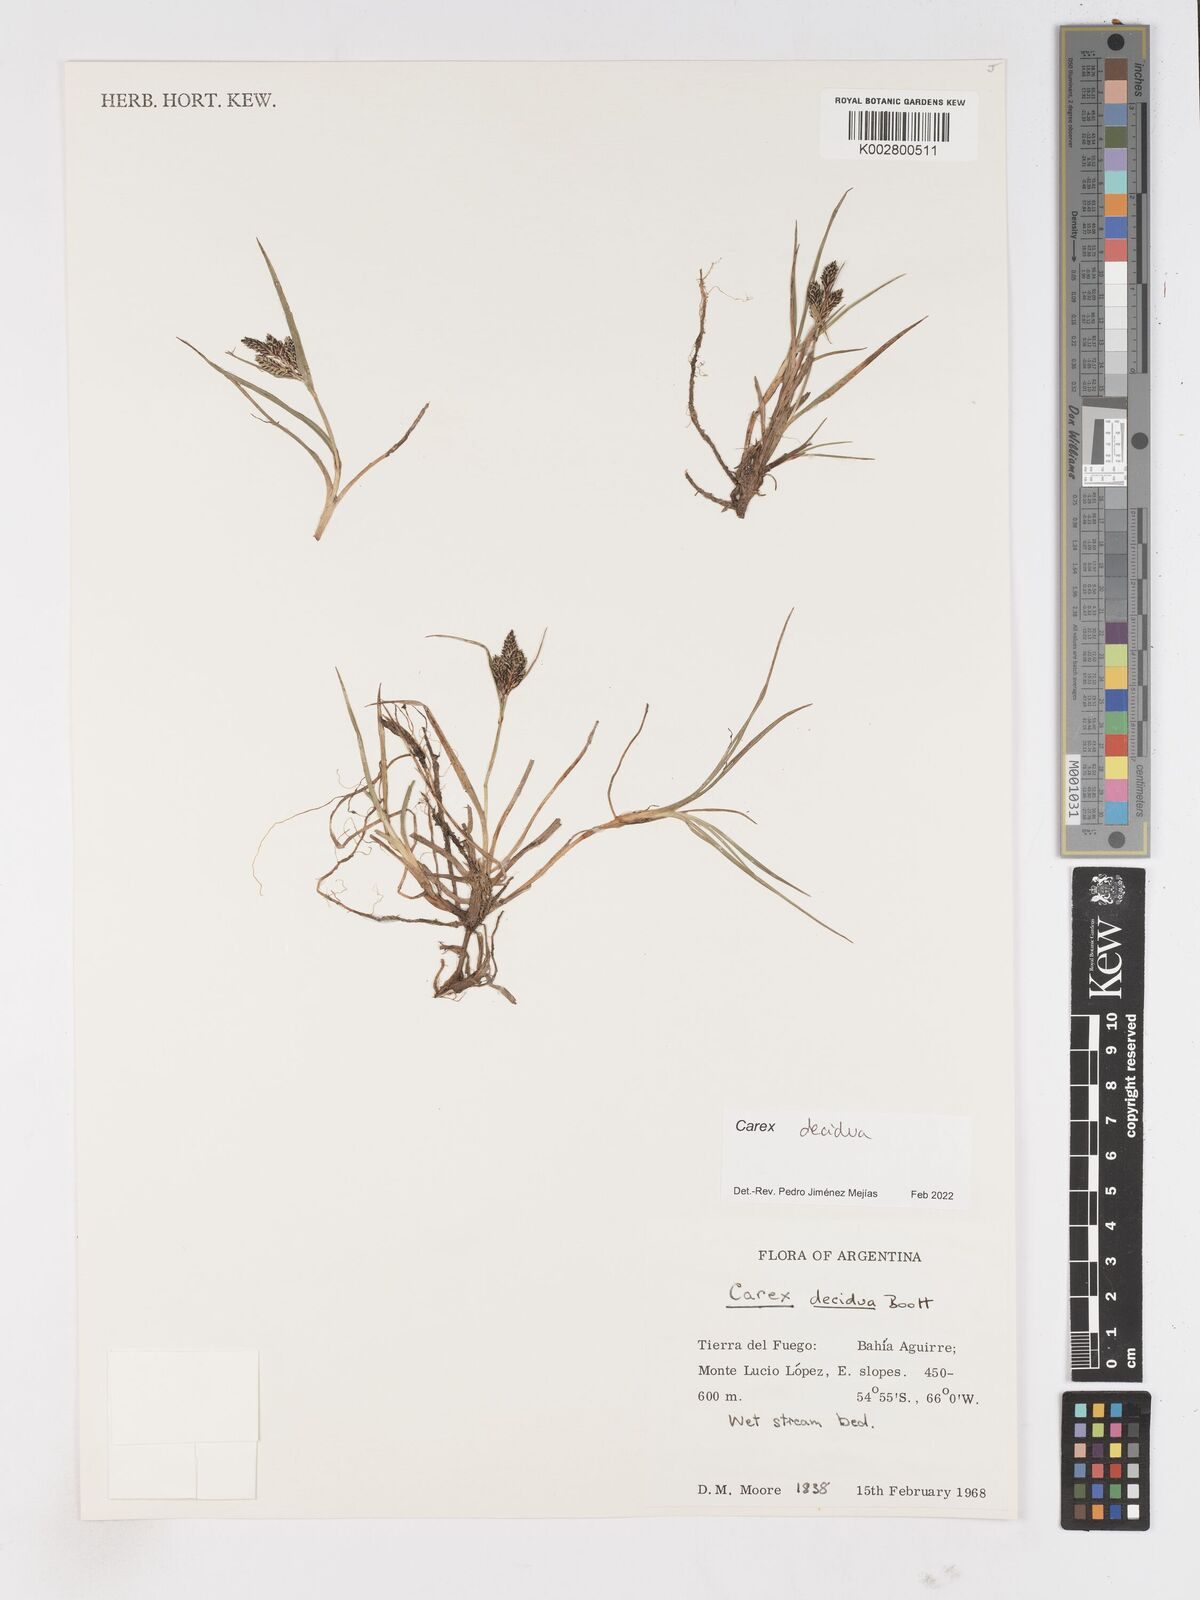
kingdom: Plantae
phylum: Tracheophyta
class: Liliopsida
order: Poales
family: Cyperaceae
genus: Carex
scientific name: Carex decidua
